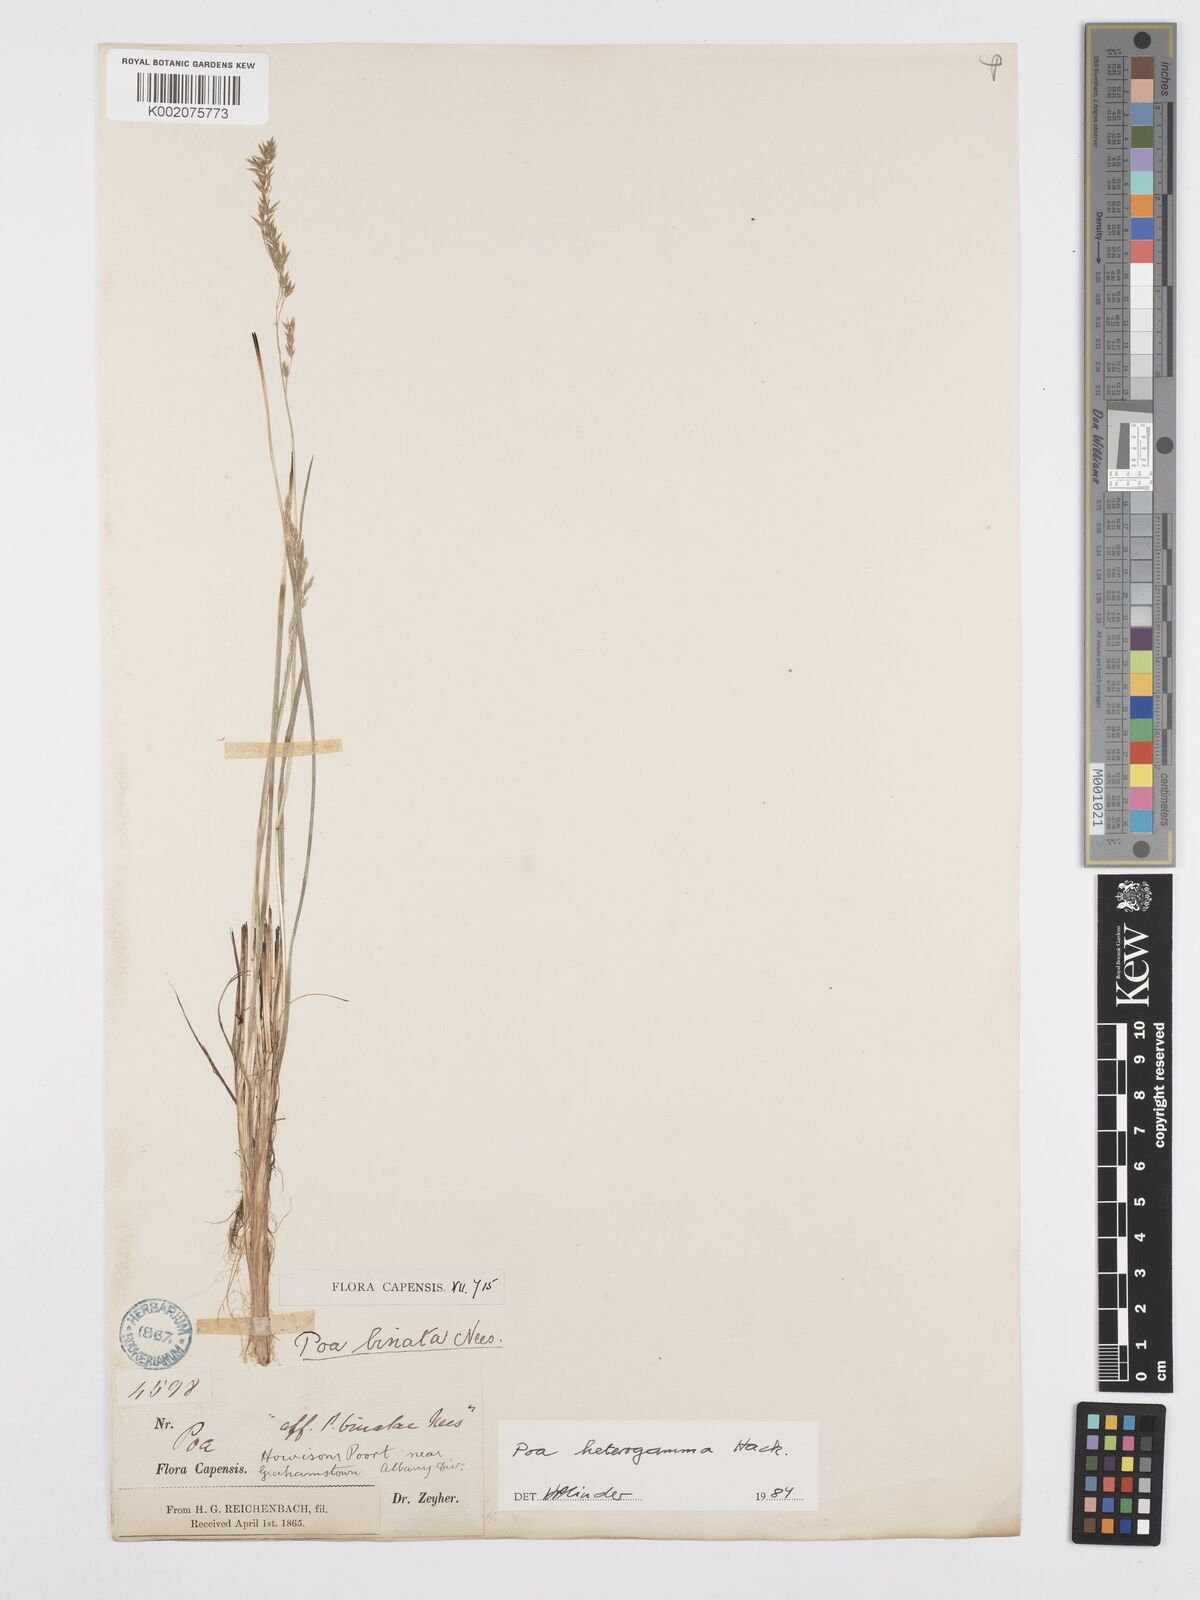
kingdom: Plantae
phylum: Tracheophyta
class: Liliopsida
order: Poales
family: Poaceae
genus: Poa
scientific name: Poa binata
